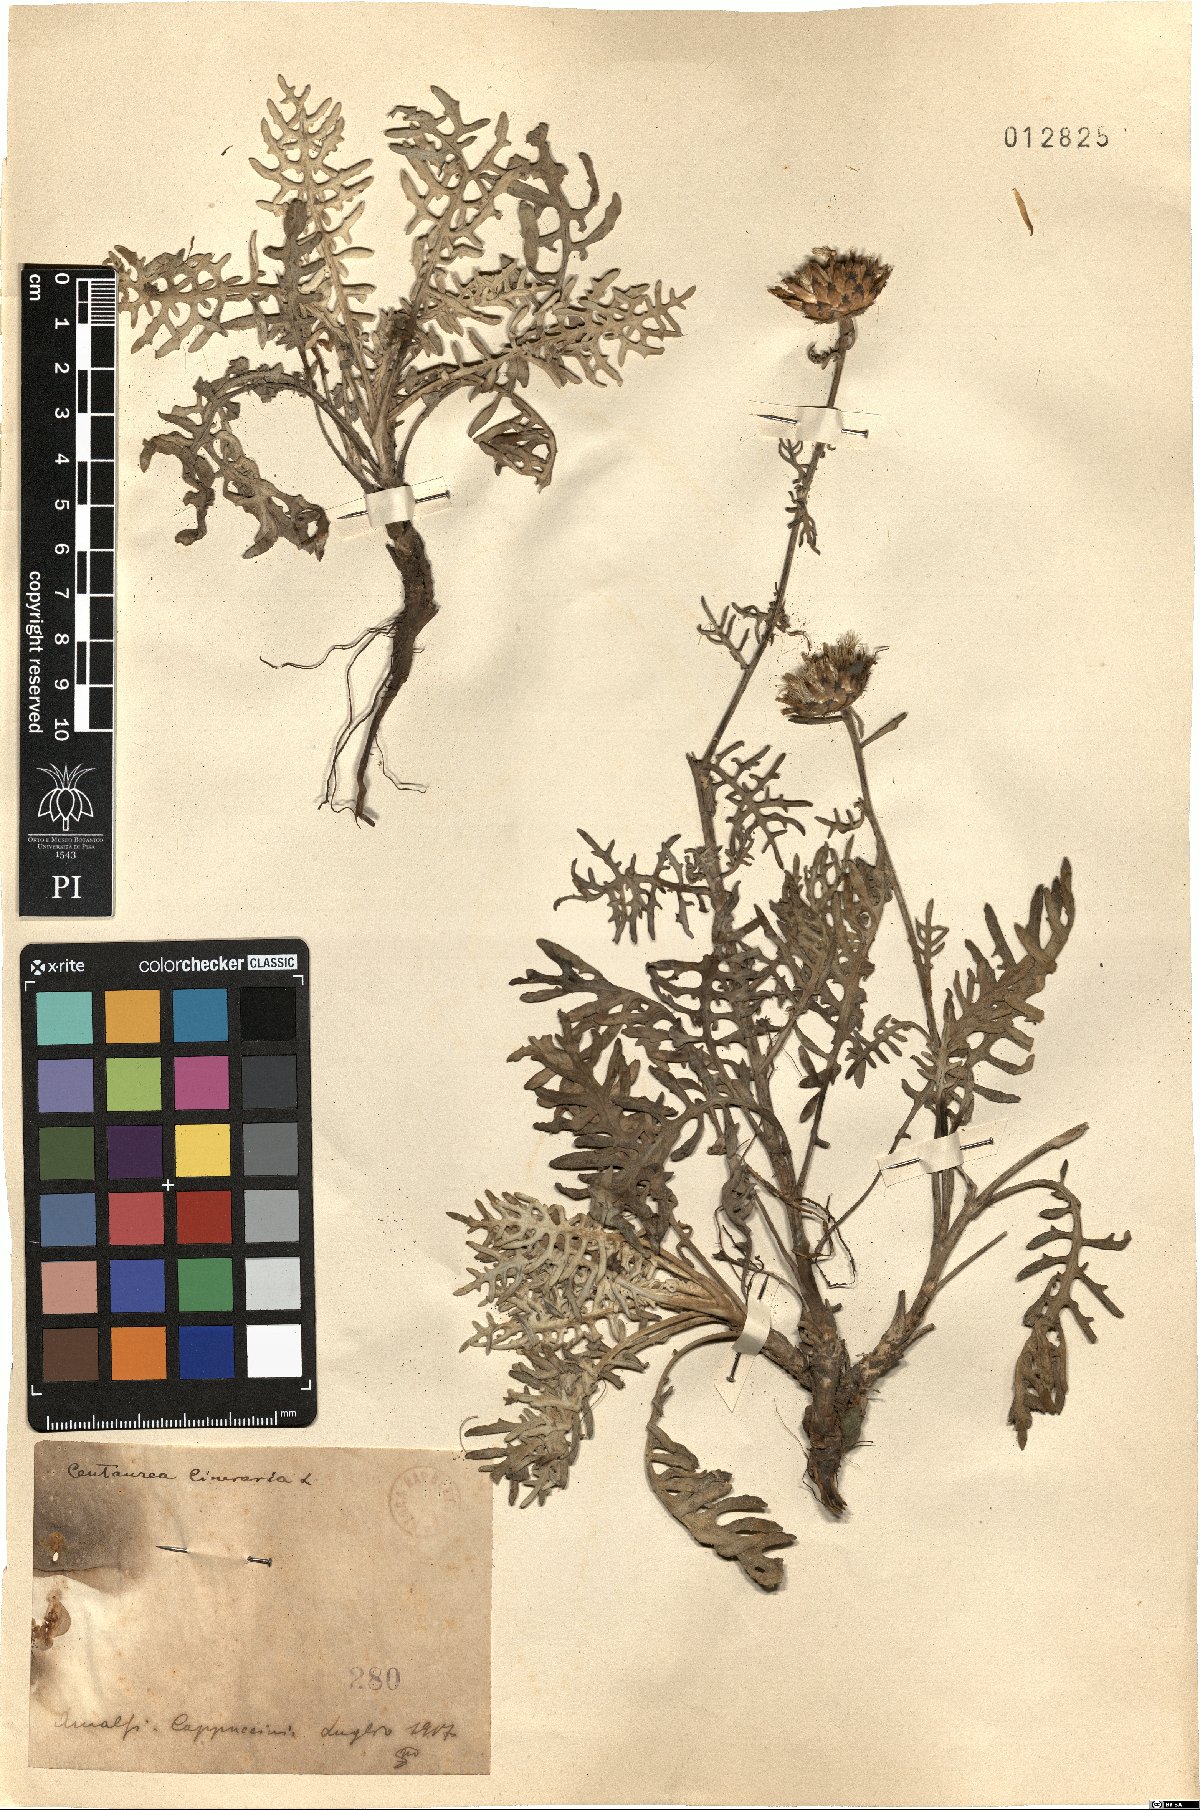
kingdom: Plantae
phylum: Tracheophyta
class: Magnoliopsida
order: Asterales
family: Asteraceae
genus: Centaurea
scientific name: Centaurea cineraria
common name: Dusty miller
